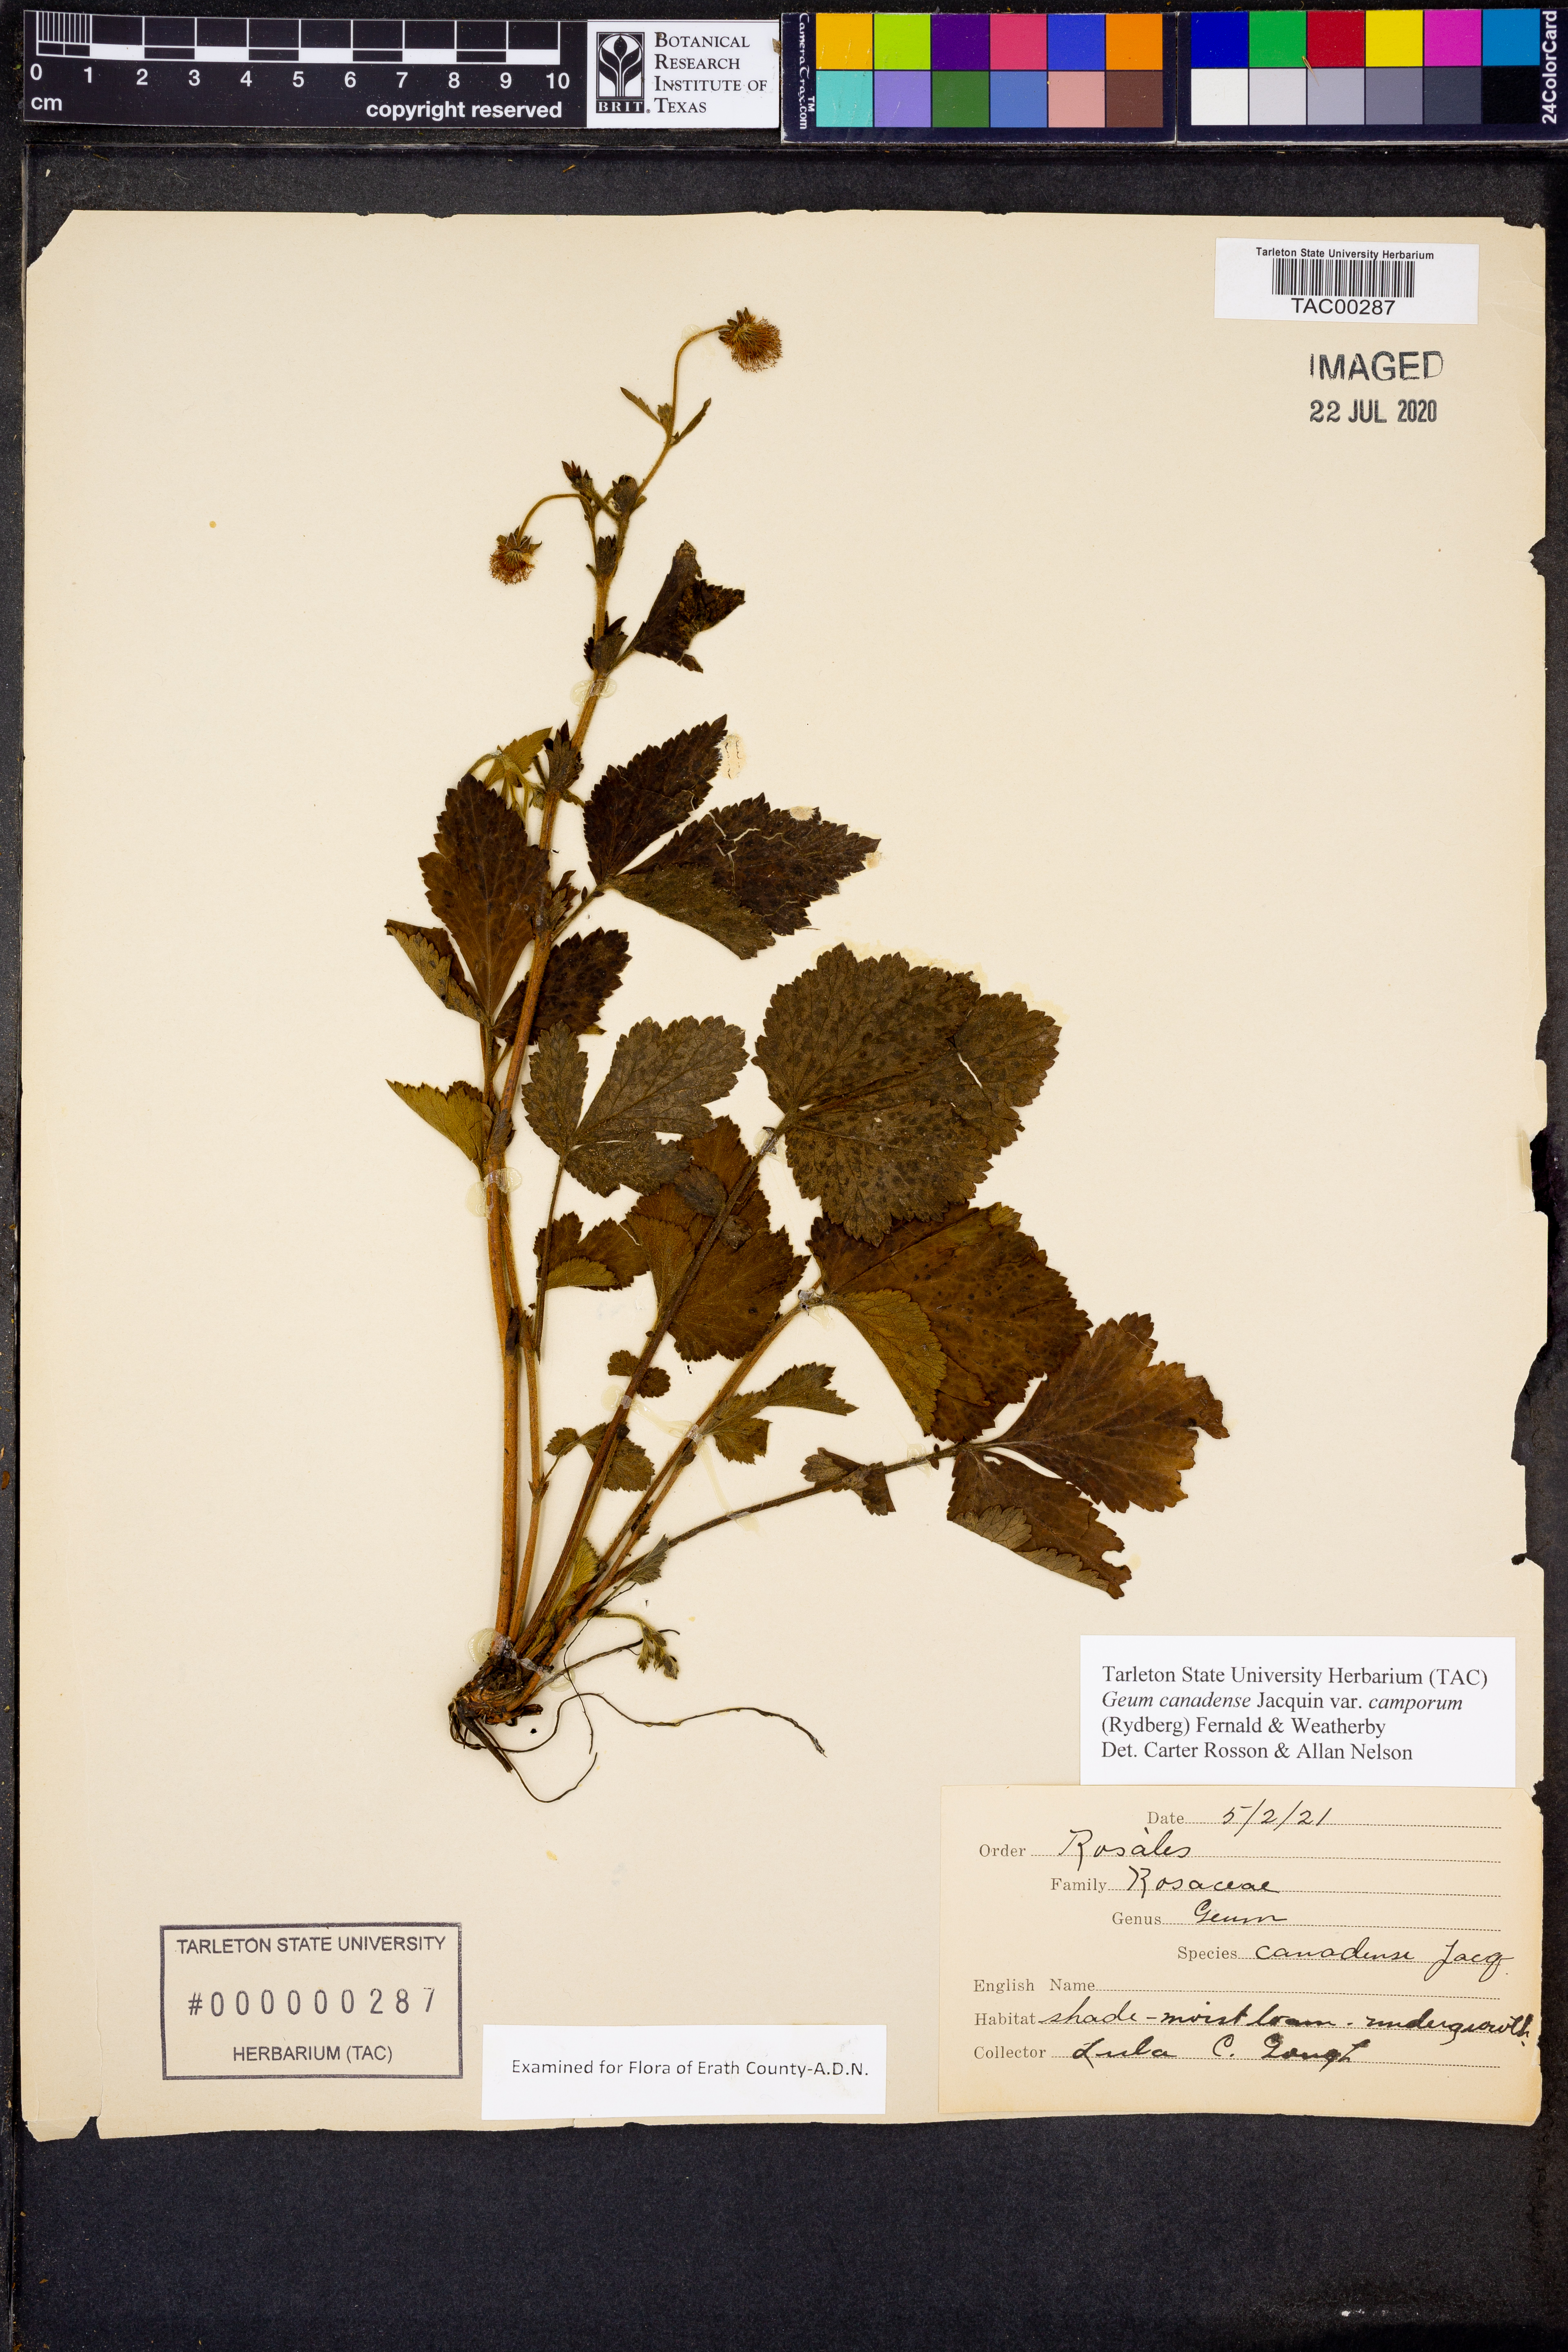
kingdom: Plantae
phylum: Tracheophyta
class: Magnoliopsida
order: Rosales
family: Rosaceae
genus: Geum
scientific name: Geum canadense
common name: White avens
